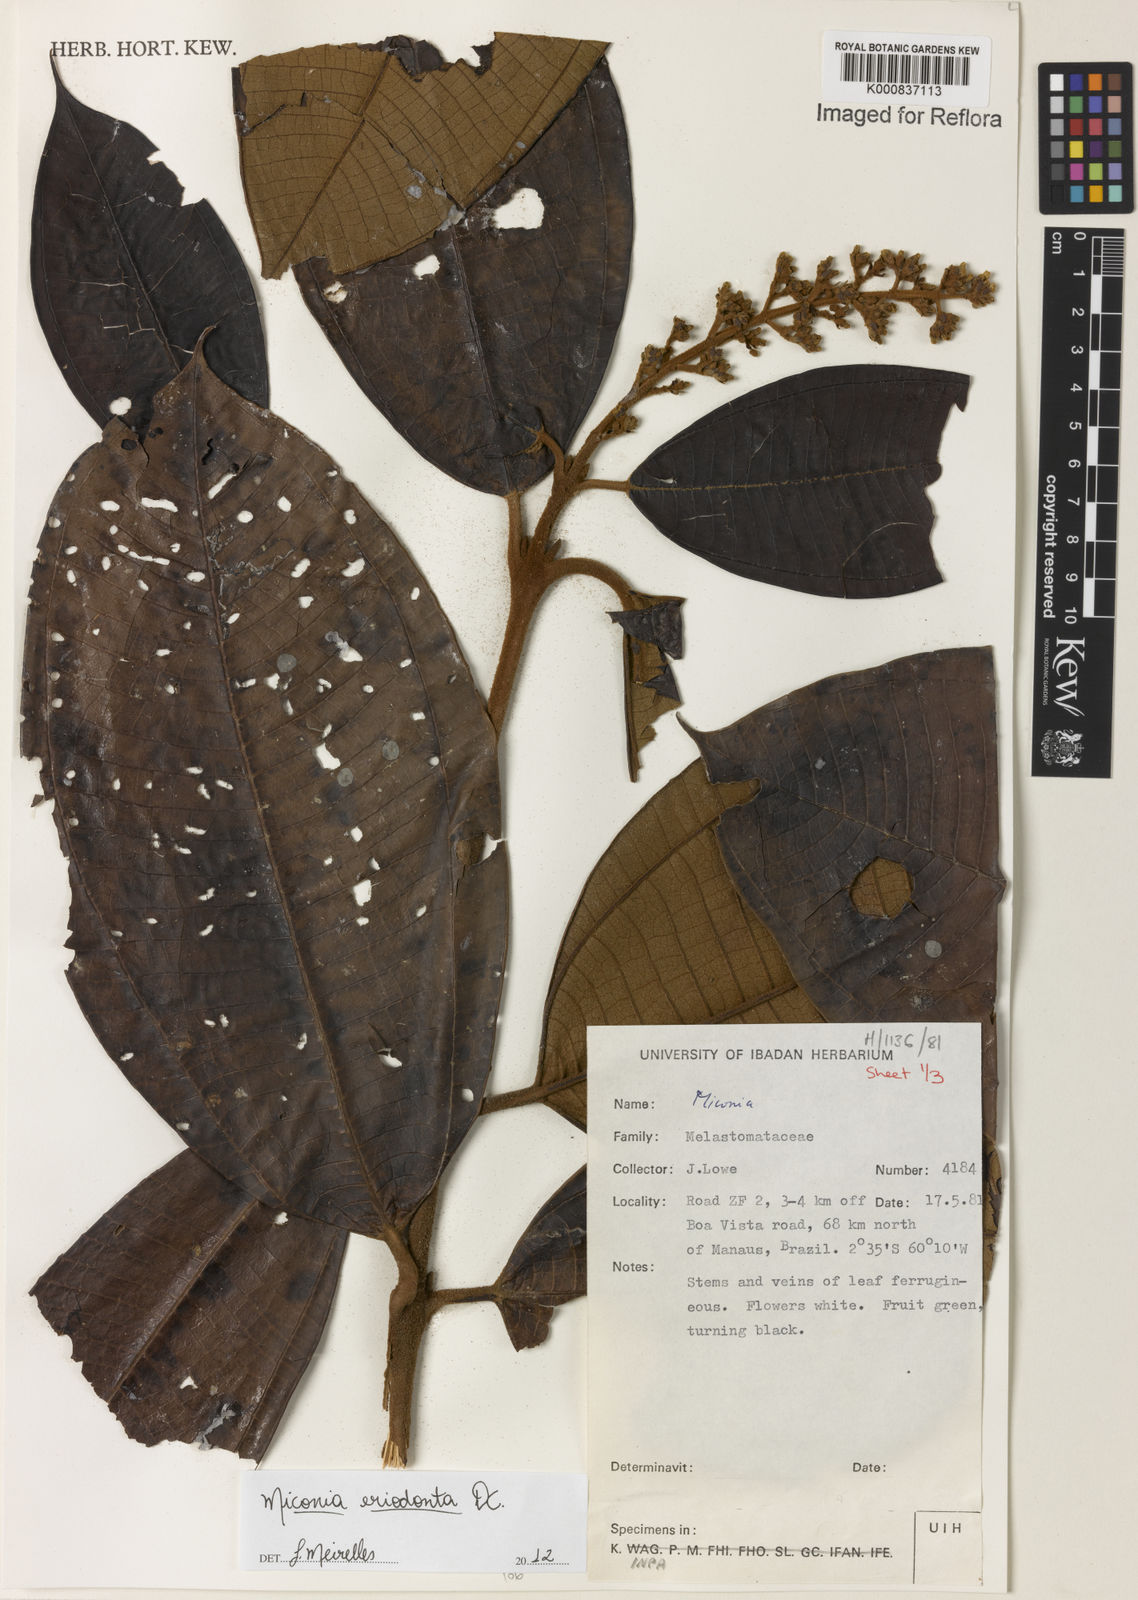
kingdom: Plantae
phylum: Tracheophyta
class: Magnoliopsida
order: Myrtales
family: Melastomataceae
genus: Miconia
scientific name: Miconia eriodonta
